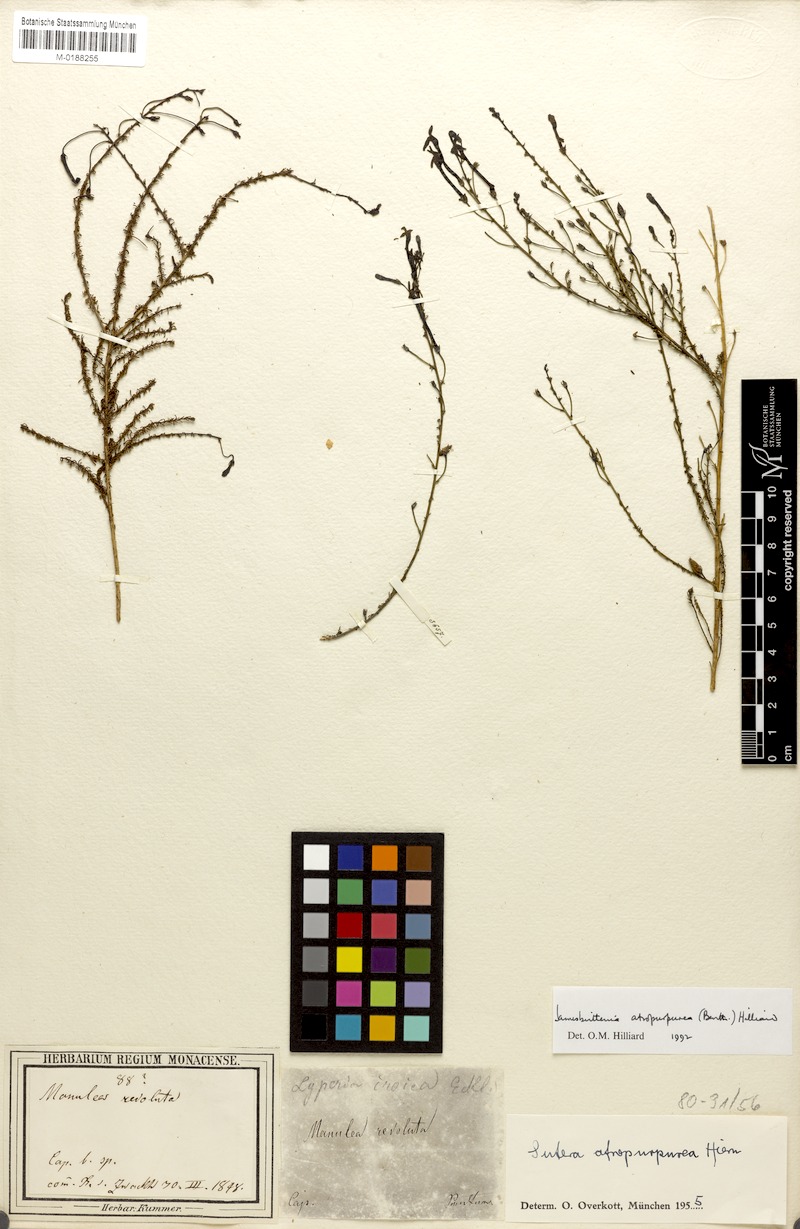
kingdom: Plantae
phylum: Tracheophyta
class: Magnoliopsida
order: Lamiales
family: Scrophulariaceae
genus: Jamesbrittenia
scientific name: Jamesbrittenia atropurpurea
